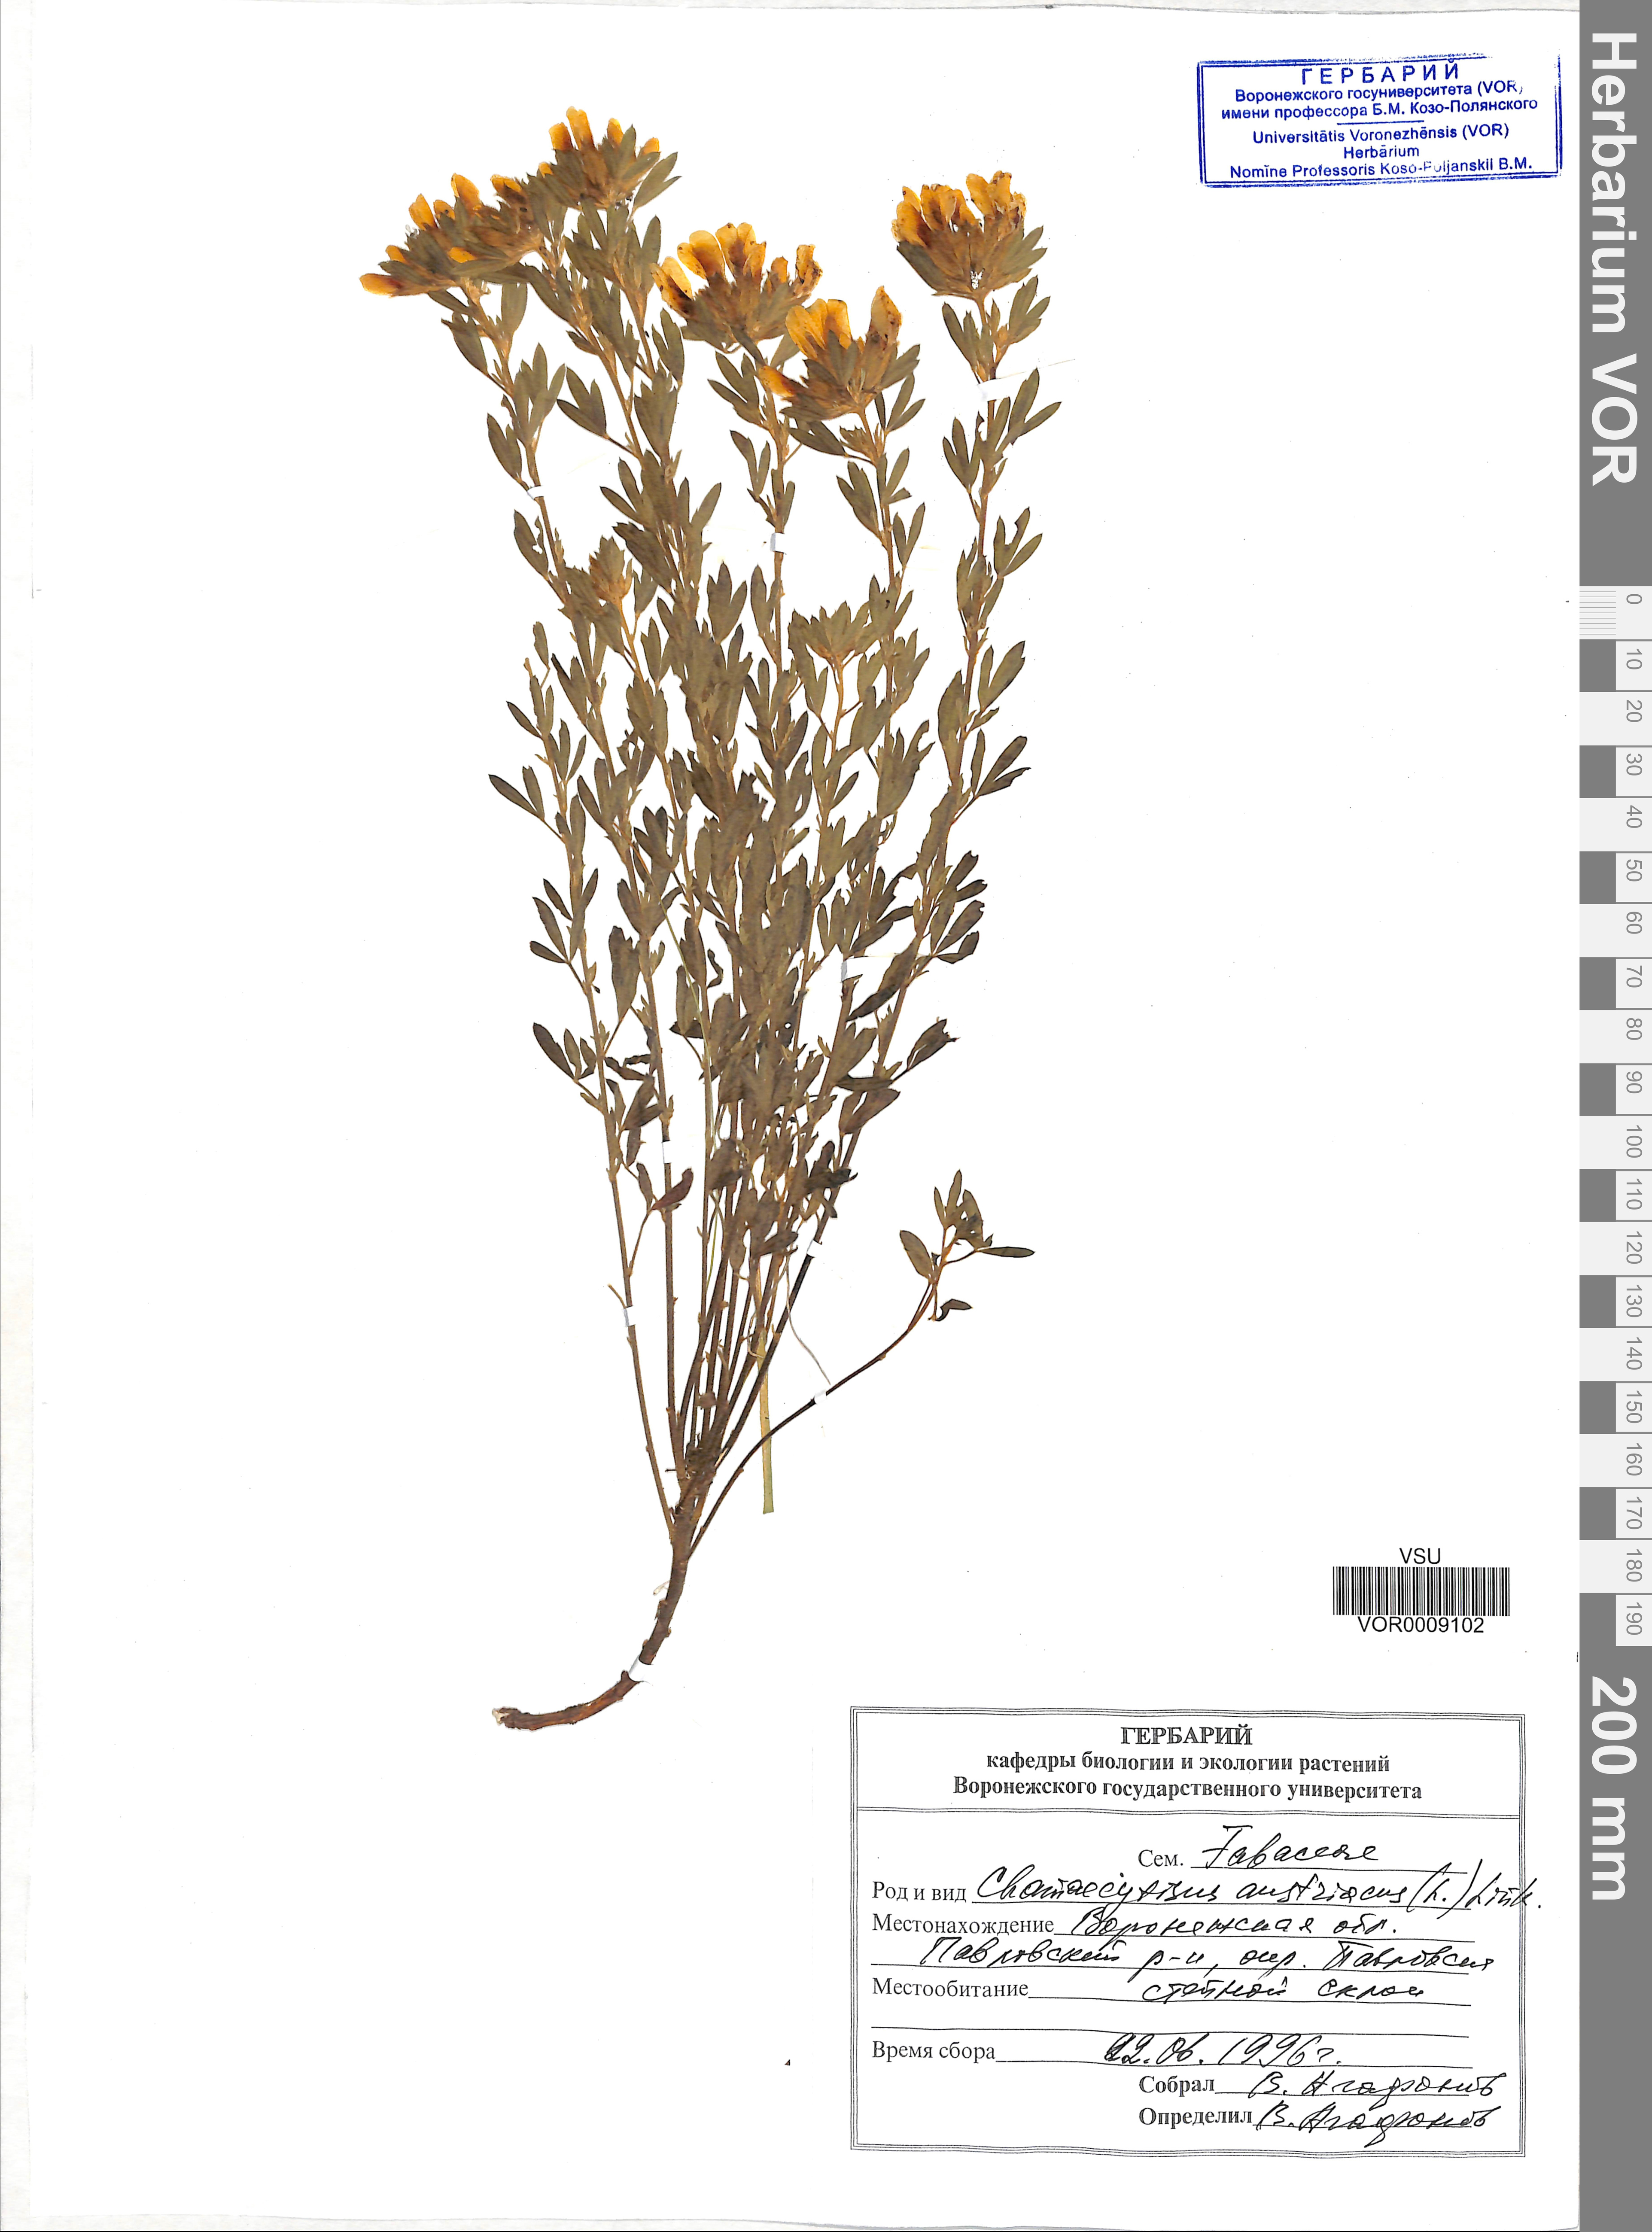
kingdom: Plantae
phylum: Tracheophyta
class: Magnoliopsida
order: Fabales
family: Fabaceae
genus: Chamaecytisus
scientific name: Chamaecytisus austriacus
